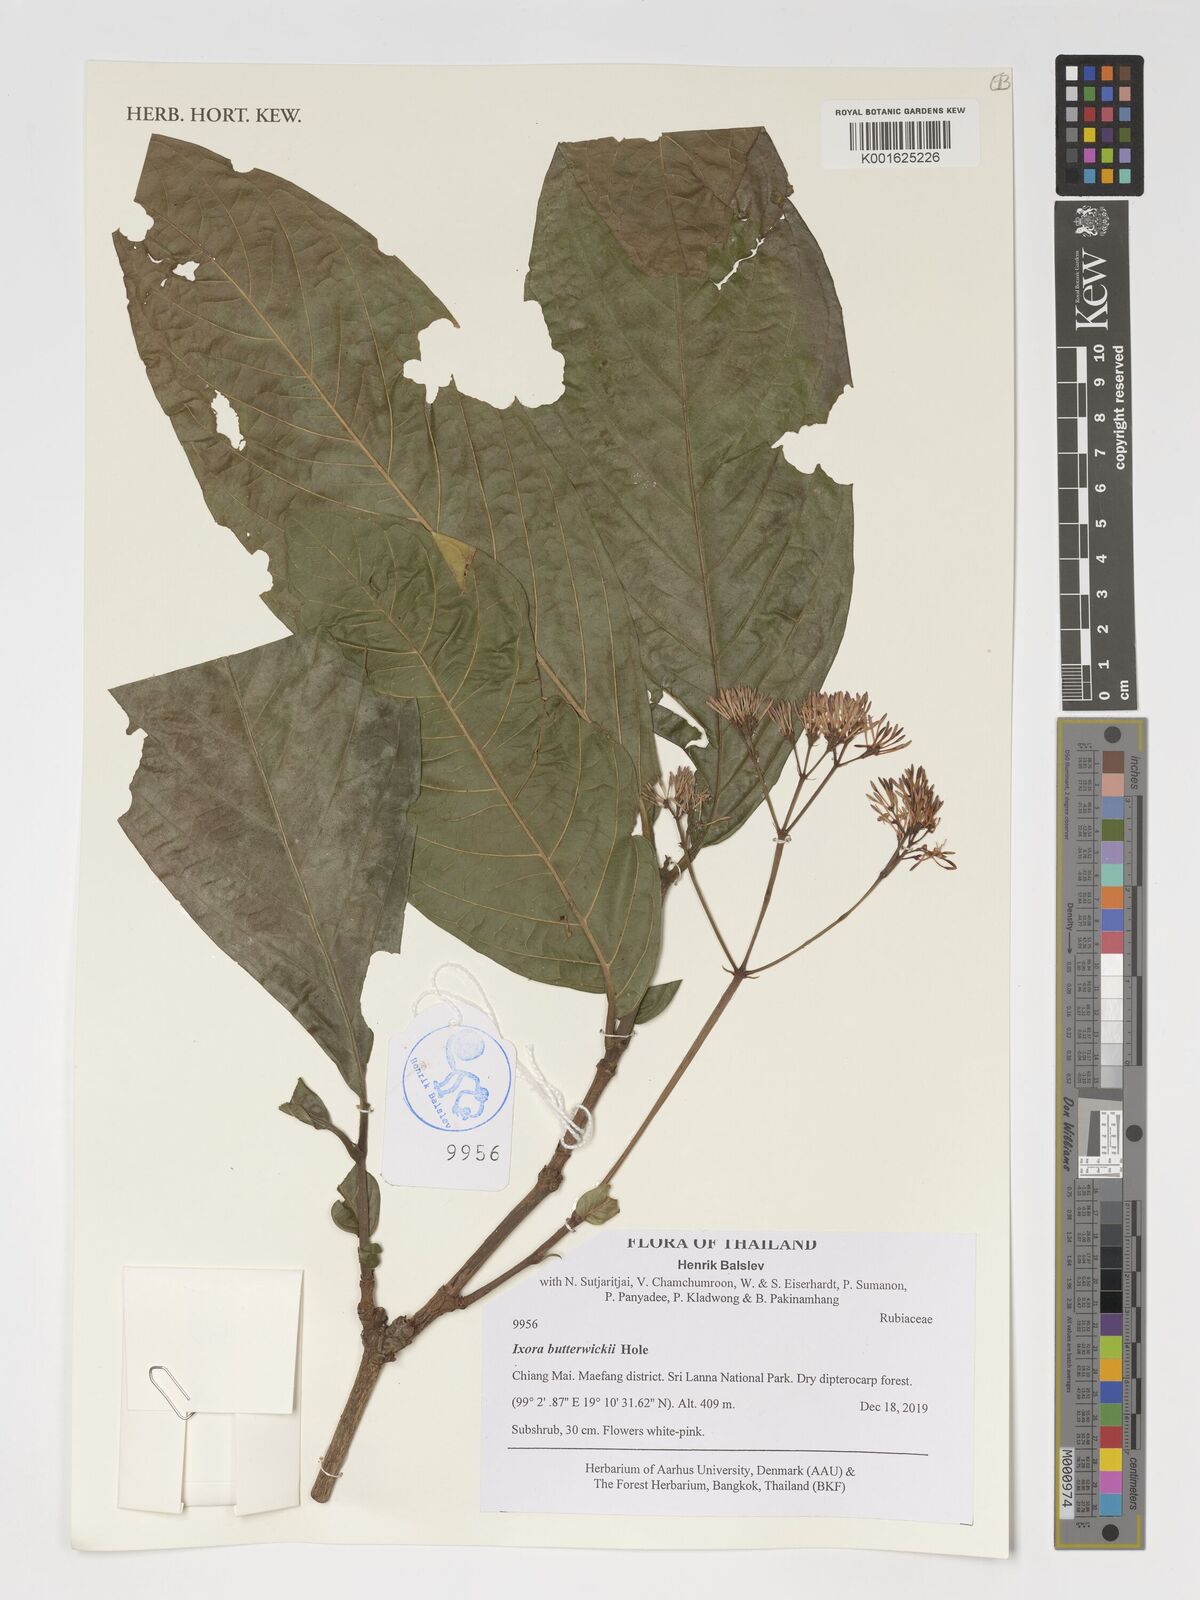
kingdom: Plantae
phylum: Tracheophyta
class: Magnoliopsida
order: Gentianales
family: Rubiaceae
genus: Ixora
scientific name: Ixora butterwickii
